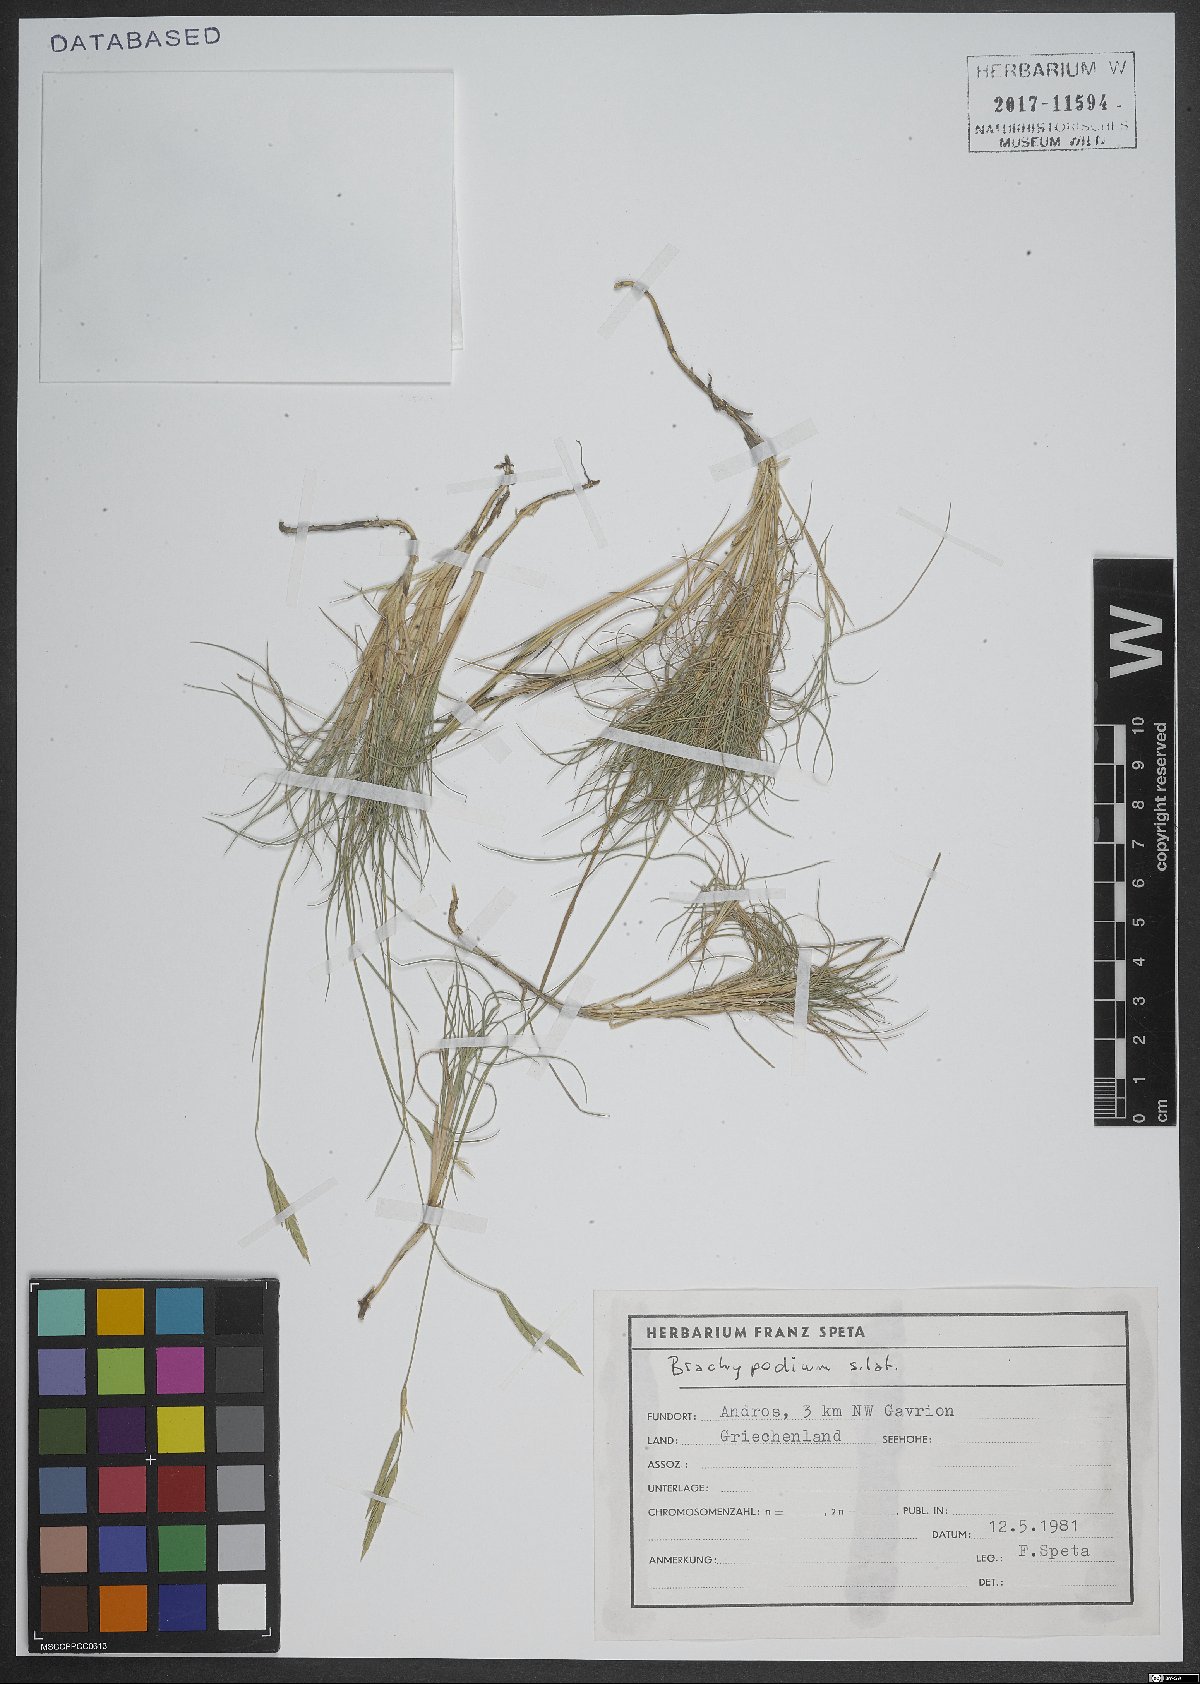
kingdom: Plantae
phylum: Tracheophyta
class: Liliopsida
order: Poales
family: Poaceae
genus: Brachypodium
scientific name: Brachypodium
